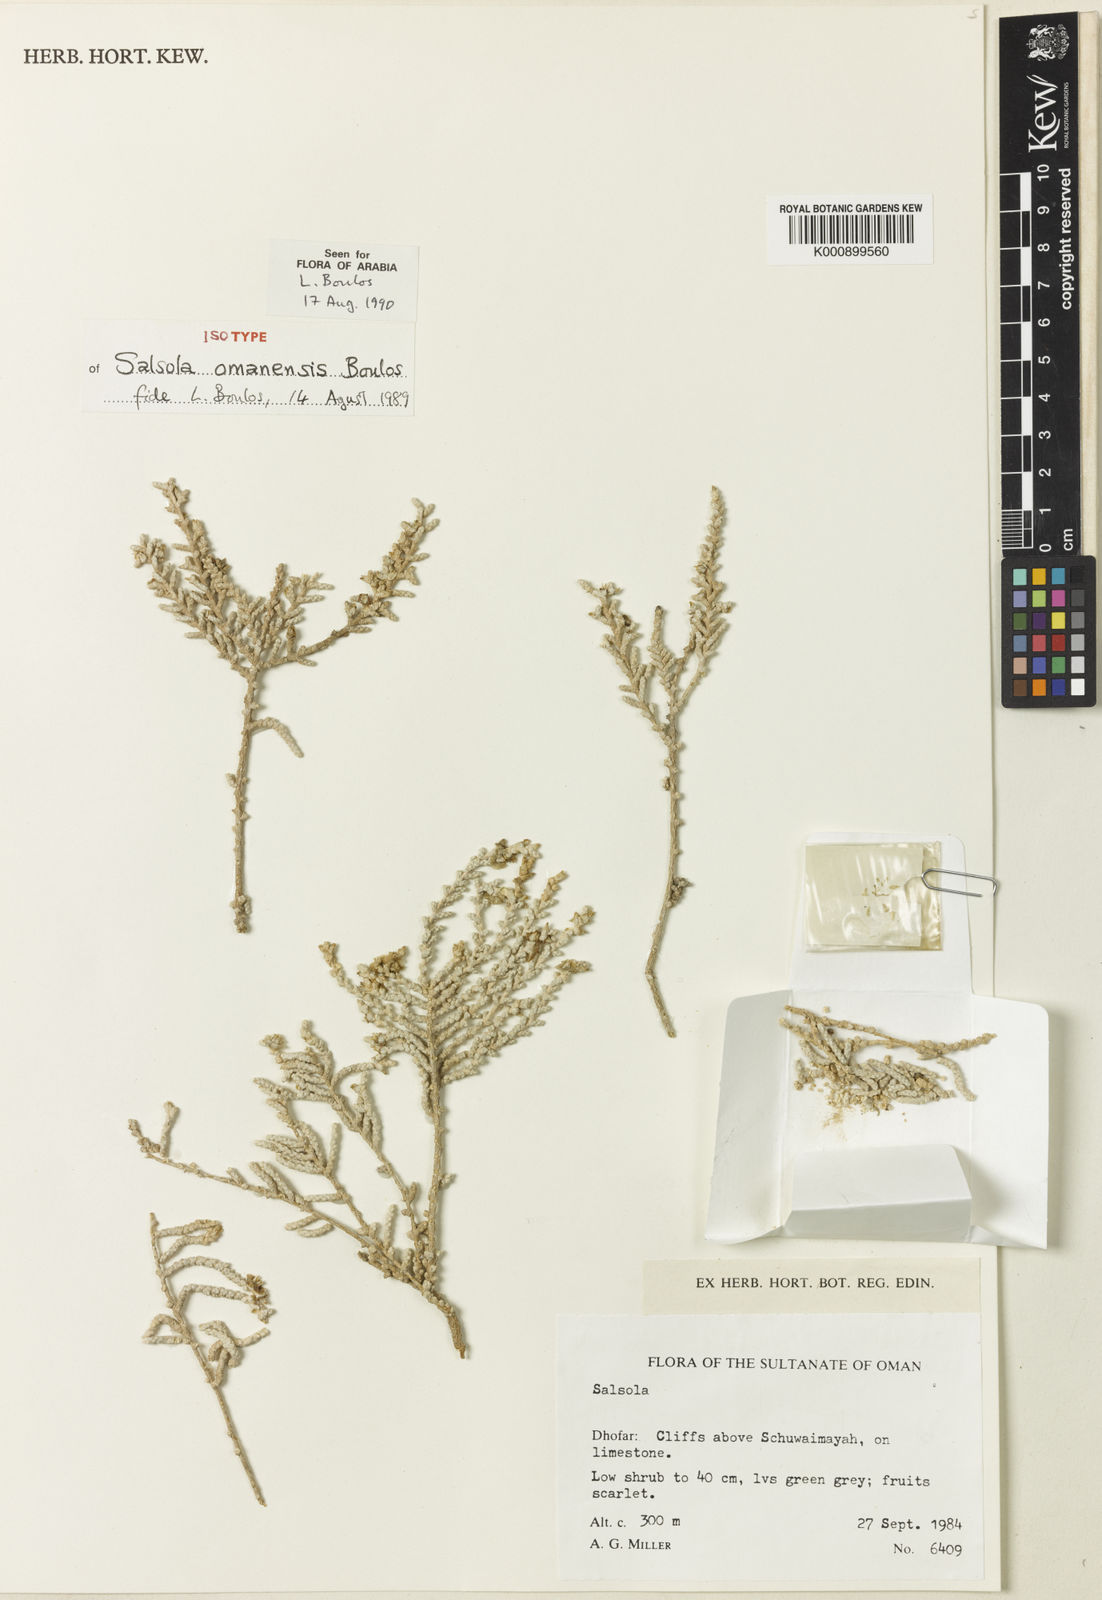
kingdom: Plantae
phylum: Tracheophyta
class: Magnoliopsida
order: Caryophyllales
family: Amaranthaceae
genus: Caroxylon
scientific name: Caroxylon omanense
